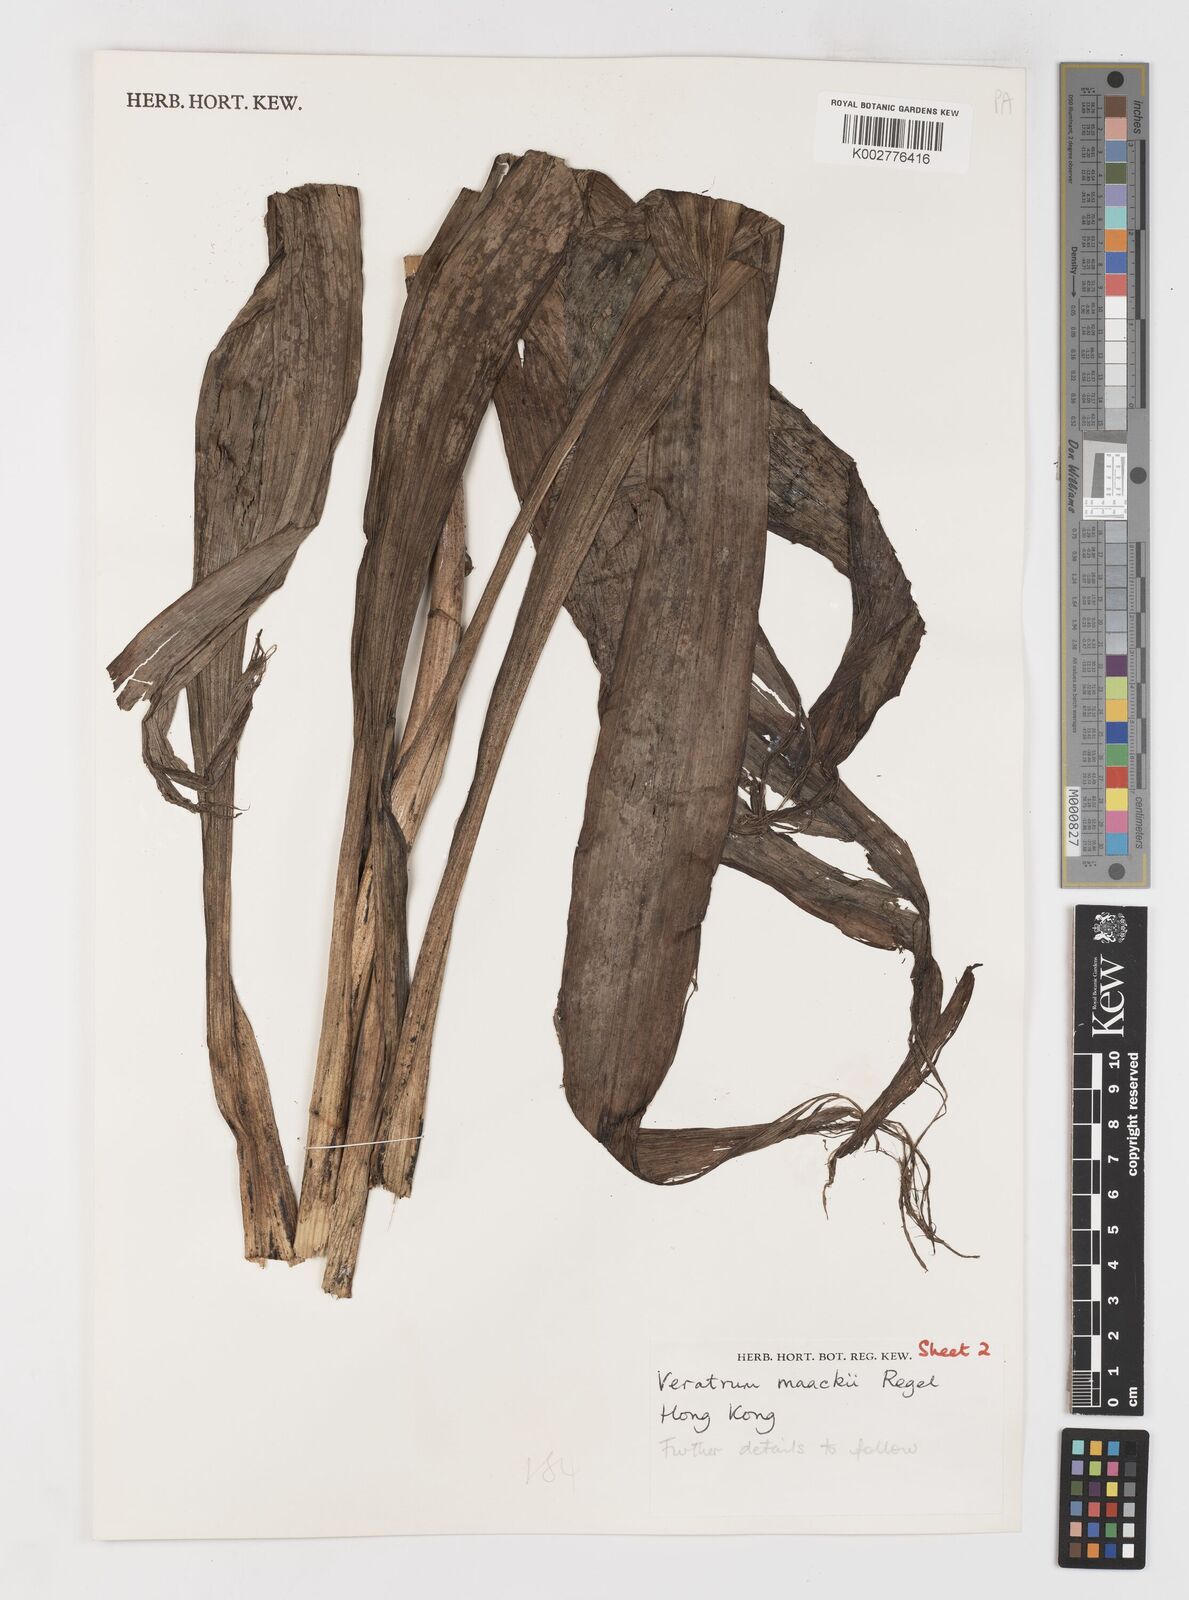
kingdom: Plantae
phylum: Tracheophyta
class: Liliopsida
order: Liliales
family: Melanthiaceae
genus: Veratrum
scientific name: Veratrum maackii
